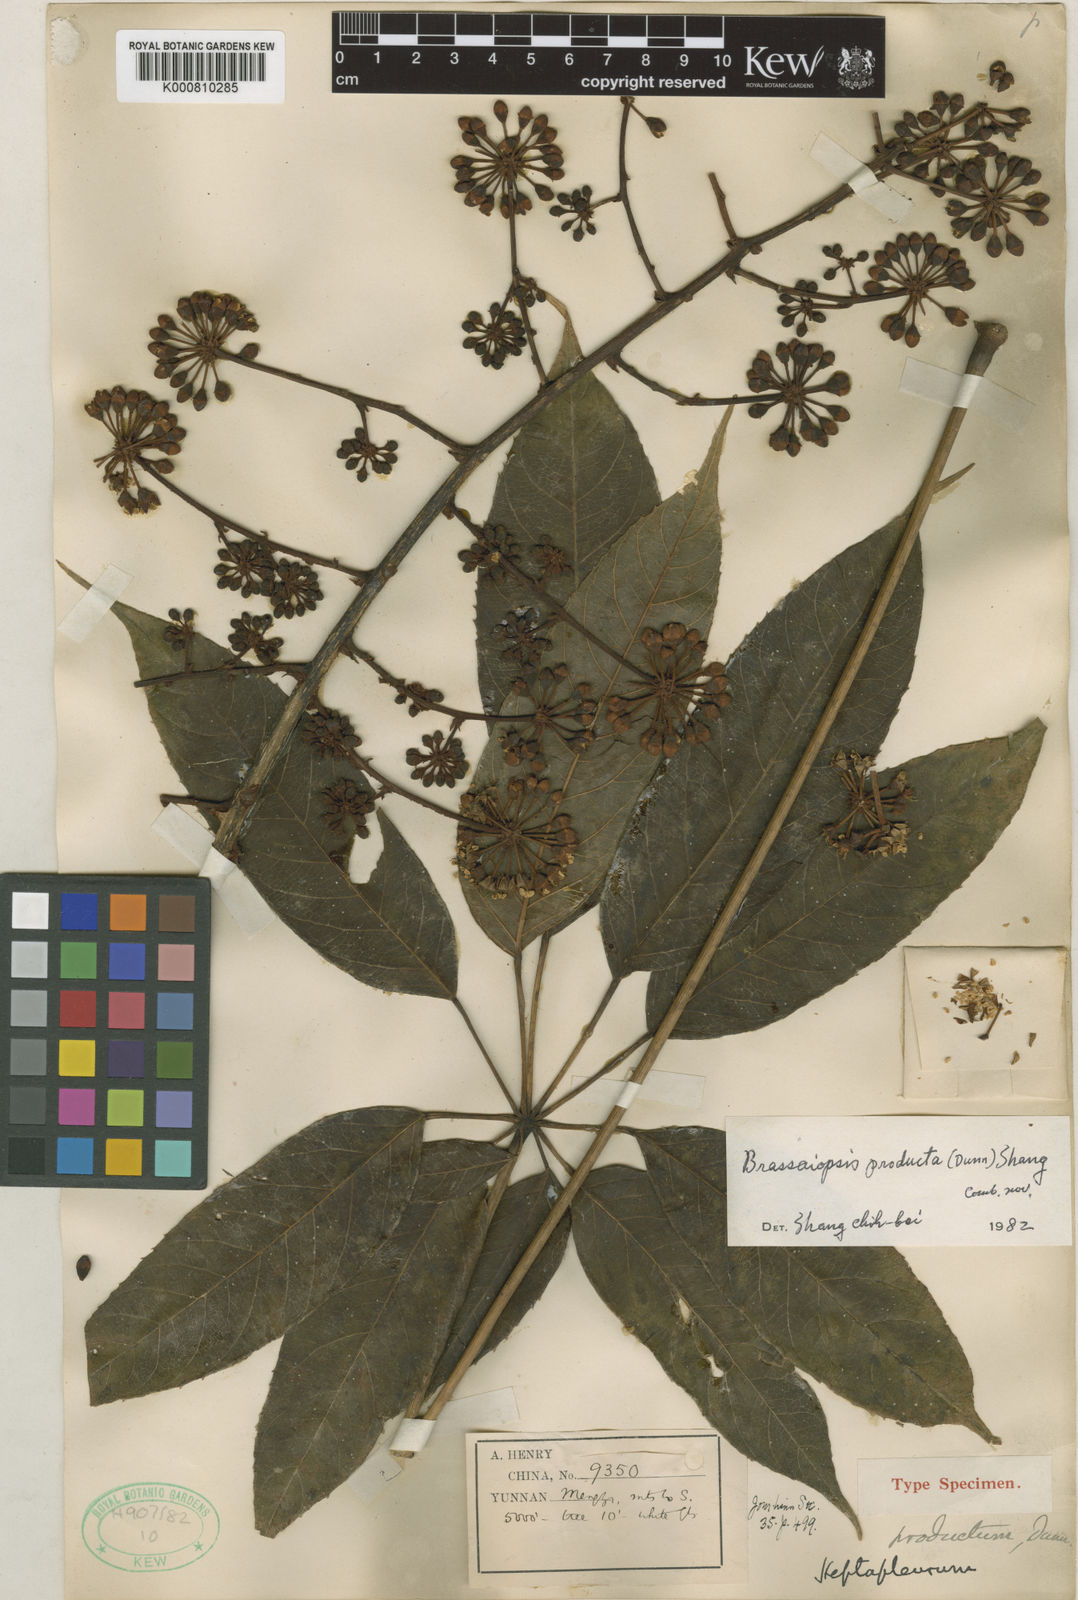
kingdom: Plantae
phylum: Tracheophyta
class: Magnoliopsida
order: Apiales
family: Araliaceae
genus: Brassaiopsis
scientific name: Brassaiopsis producta
